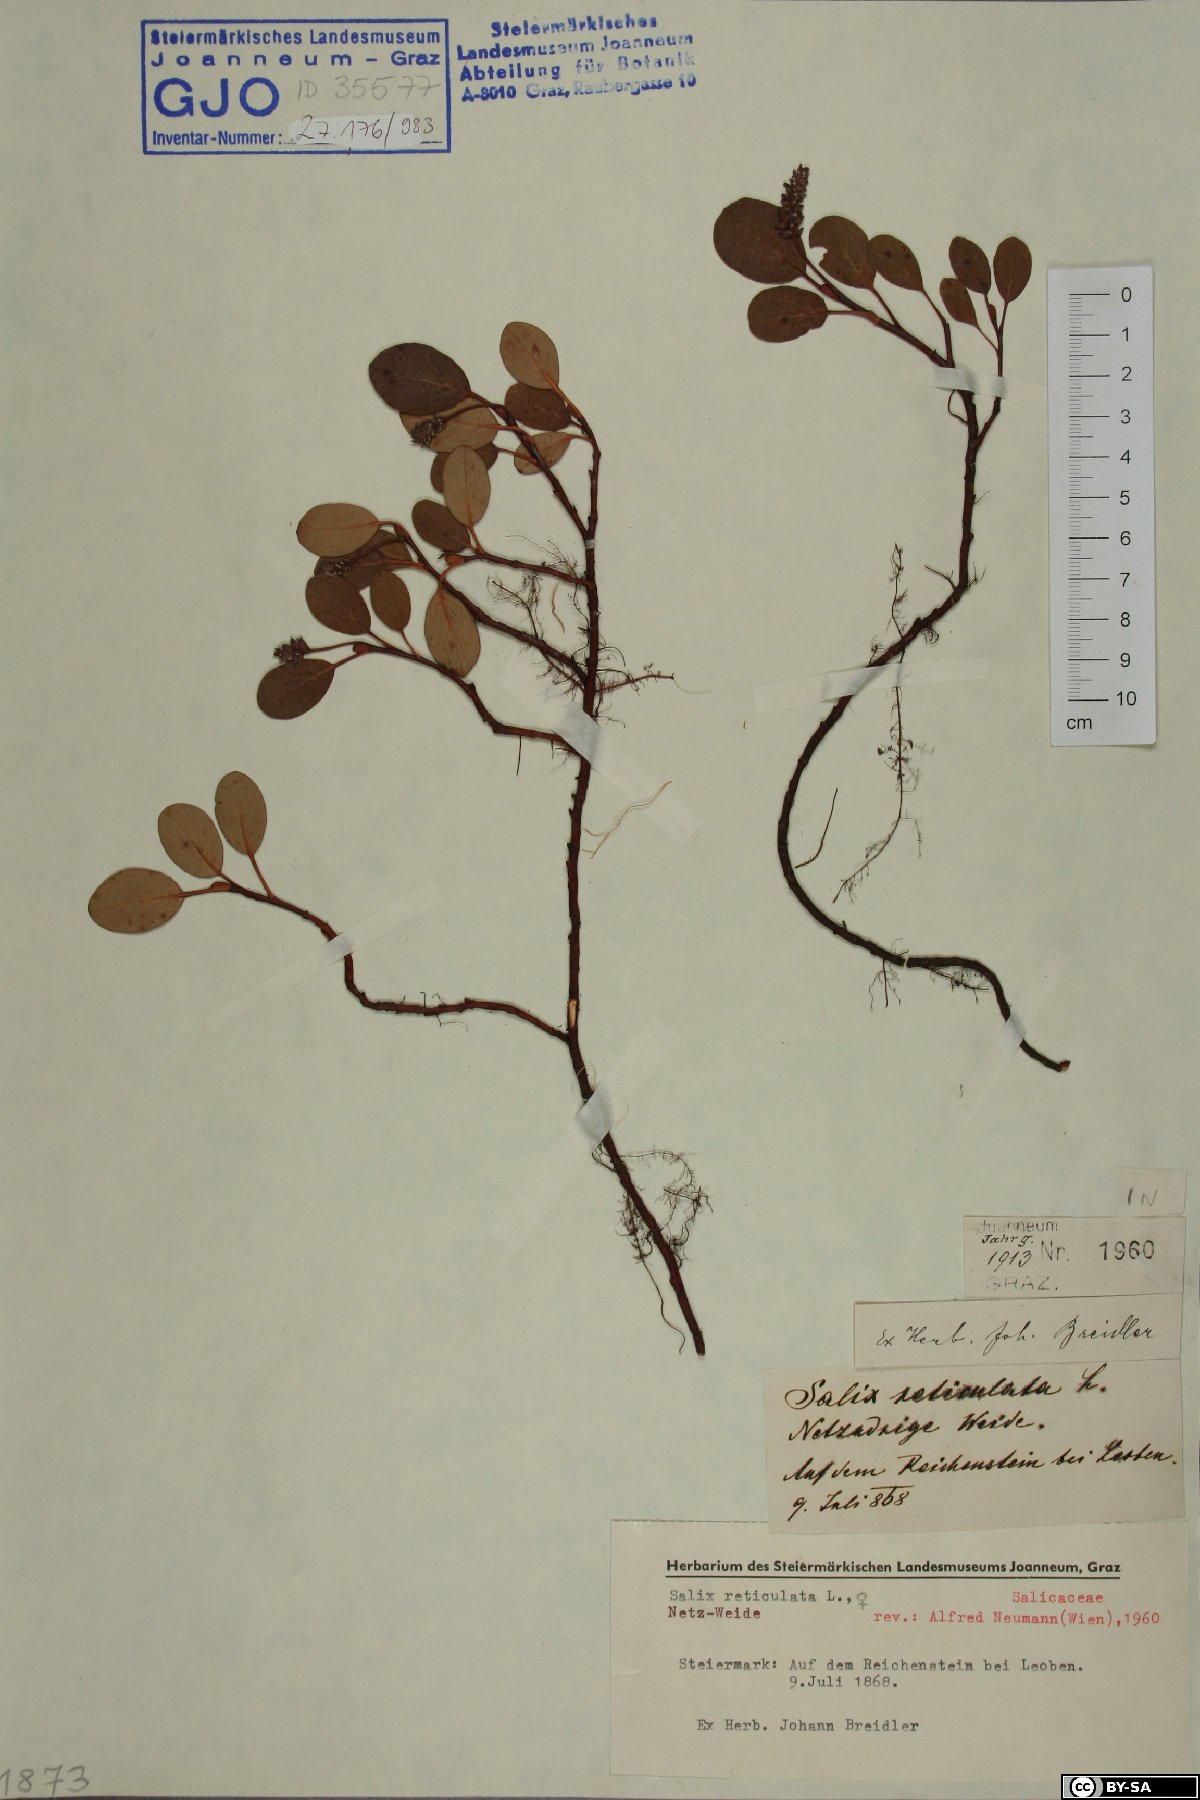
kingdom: Plantae
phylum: Tracheophyta
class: Magnoliopsida
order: Malpighiales
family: Salicaceae
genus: Salix
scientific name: Salix reticulata
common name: Net-leaved willow
